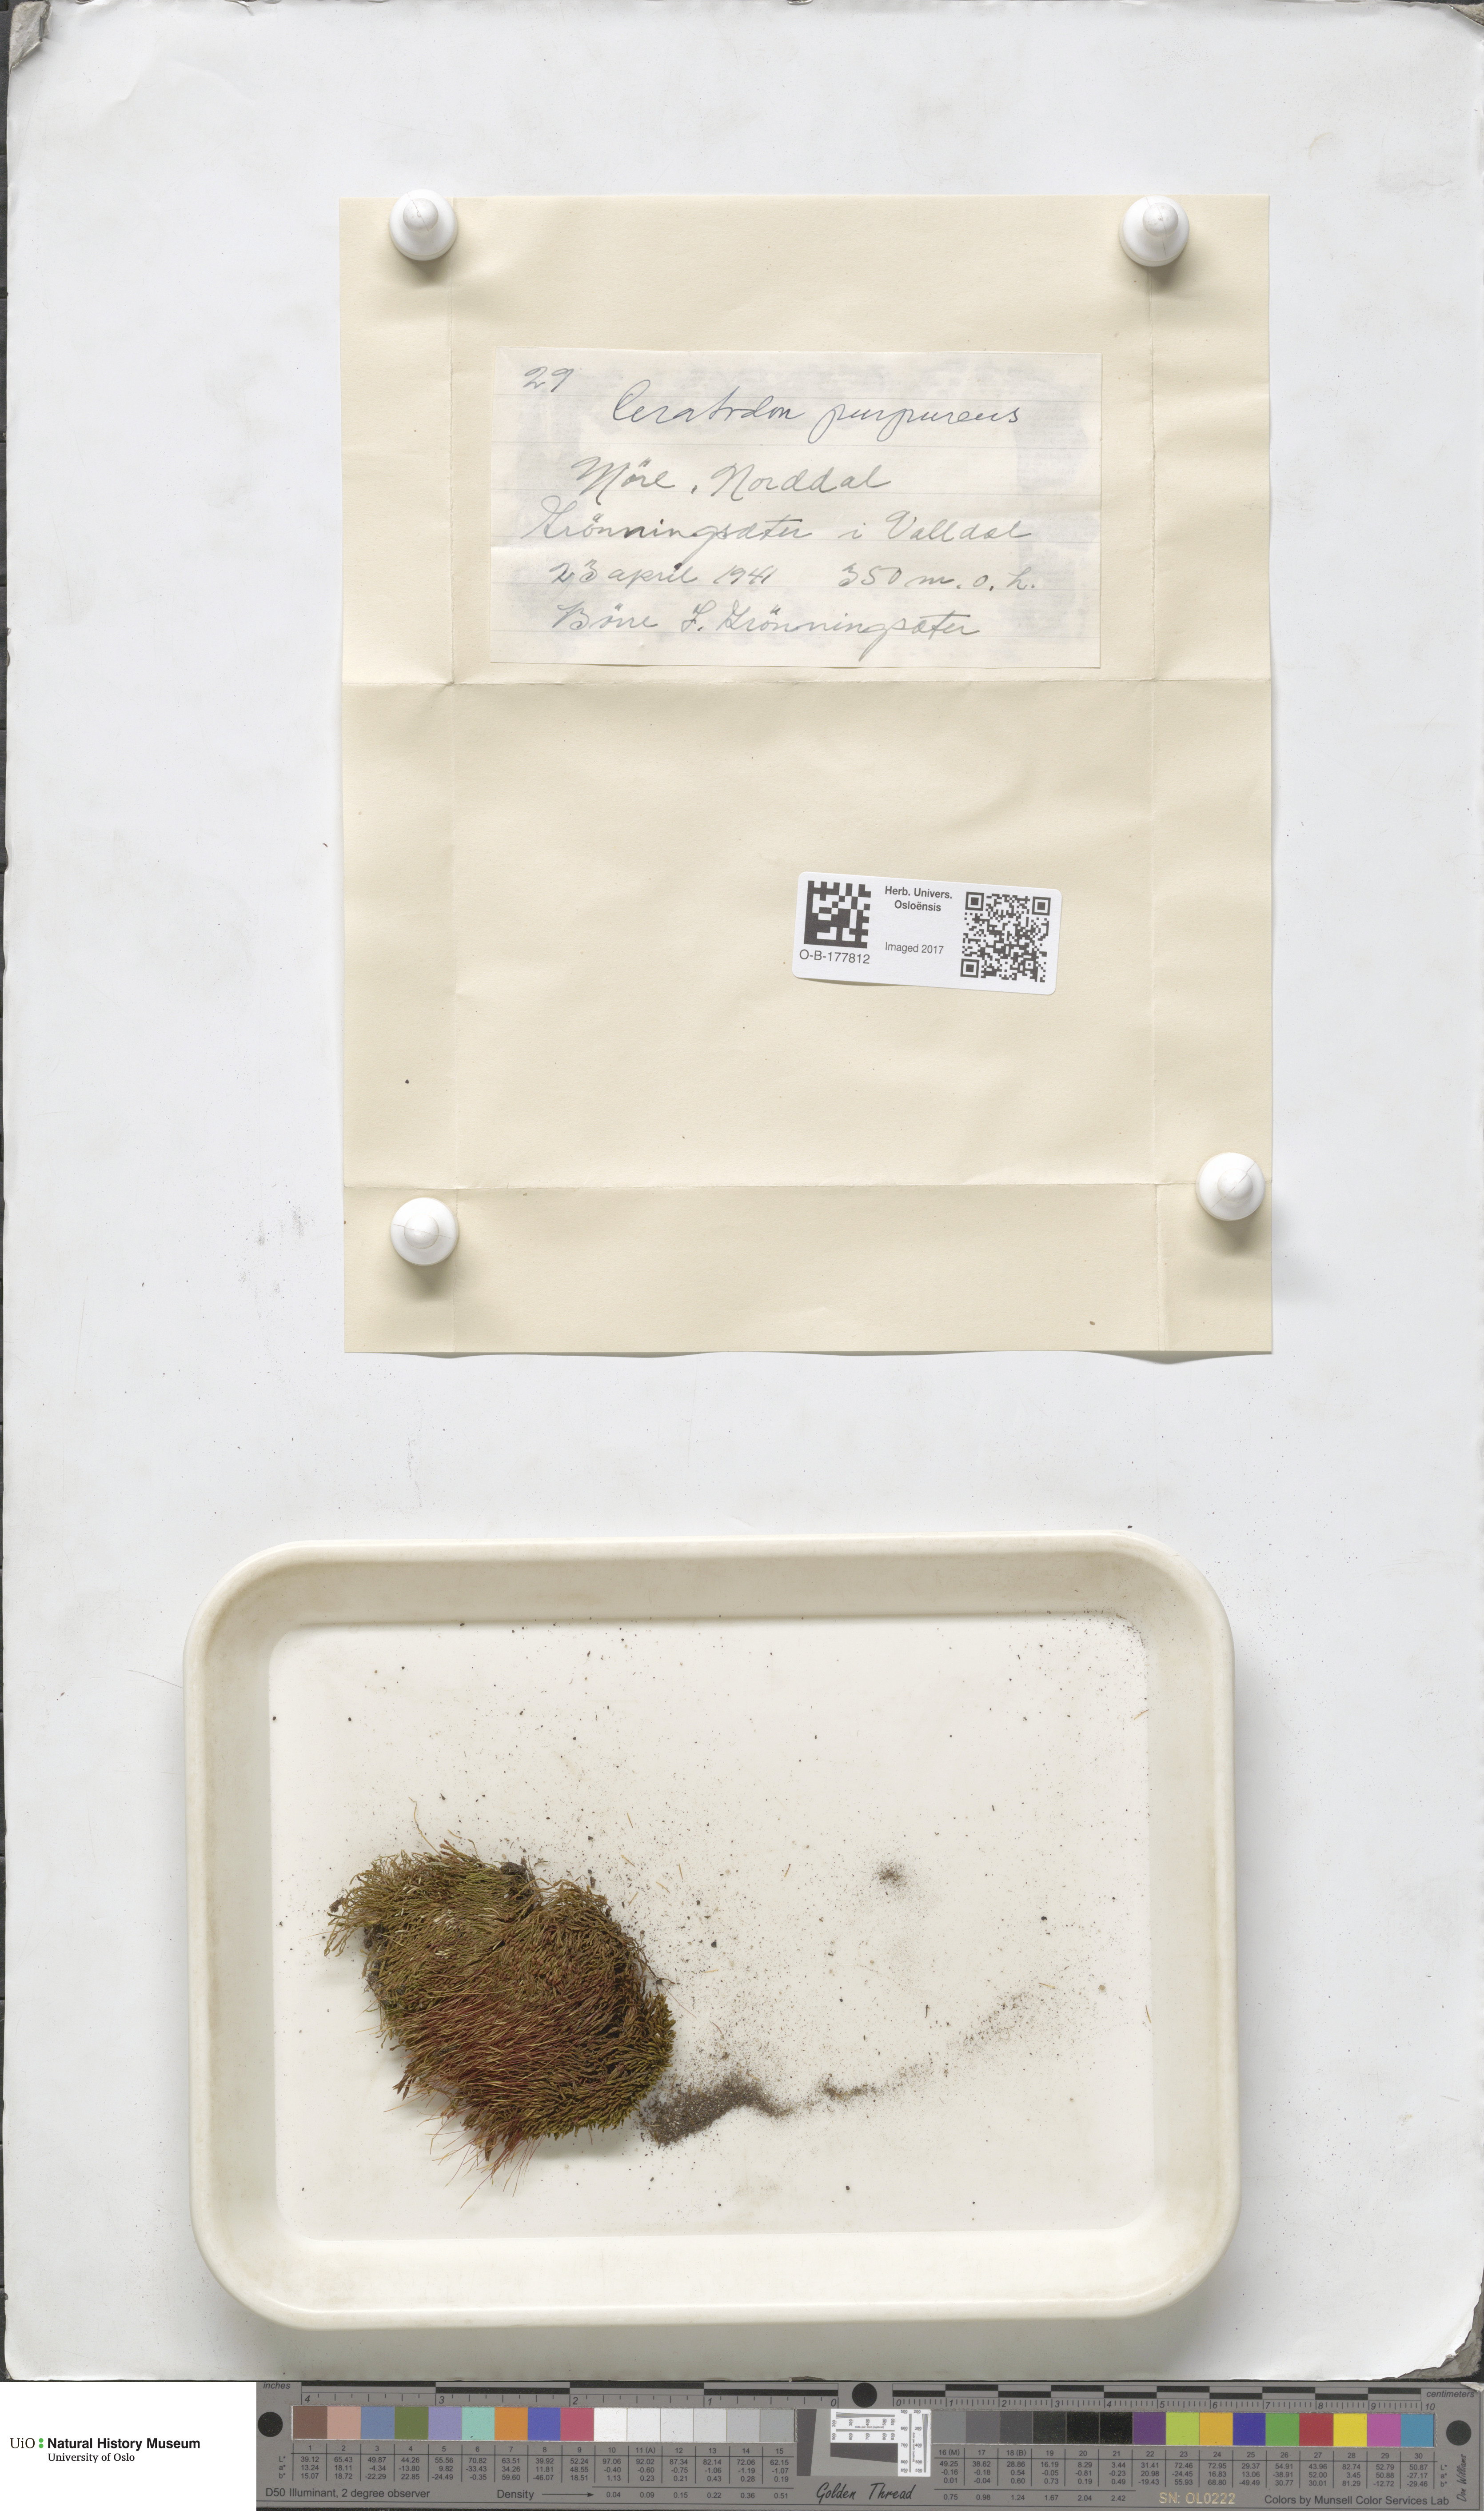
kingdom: Plantae
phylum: Bryophyta
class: Bryopsida
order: Dicranales
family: Ditrichaceae
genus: Ceratodon
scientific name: Ceratodon purpureus
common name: Redshank
